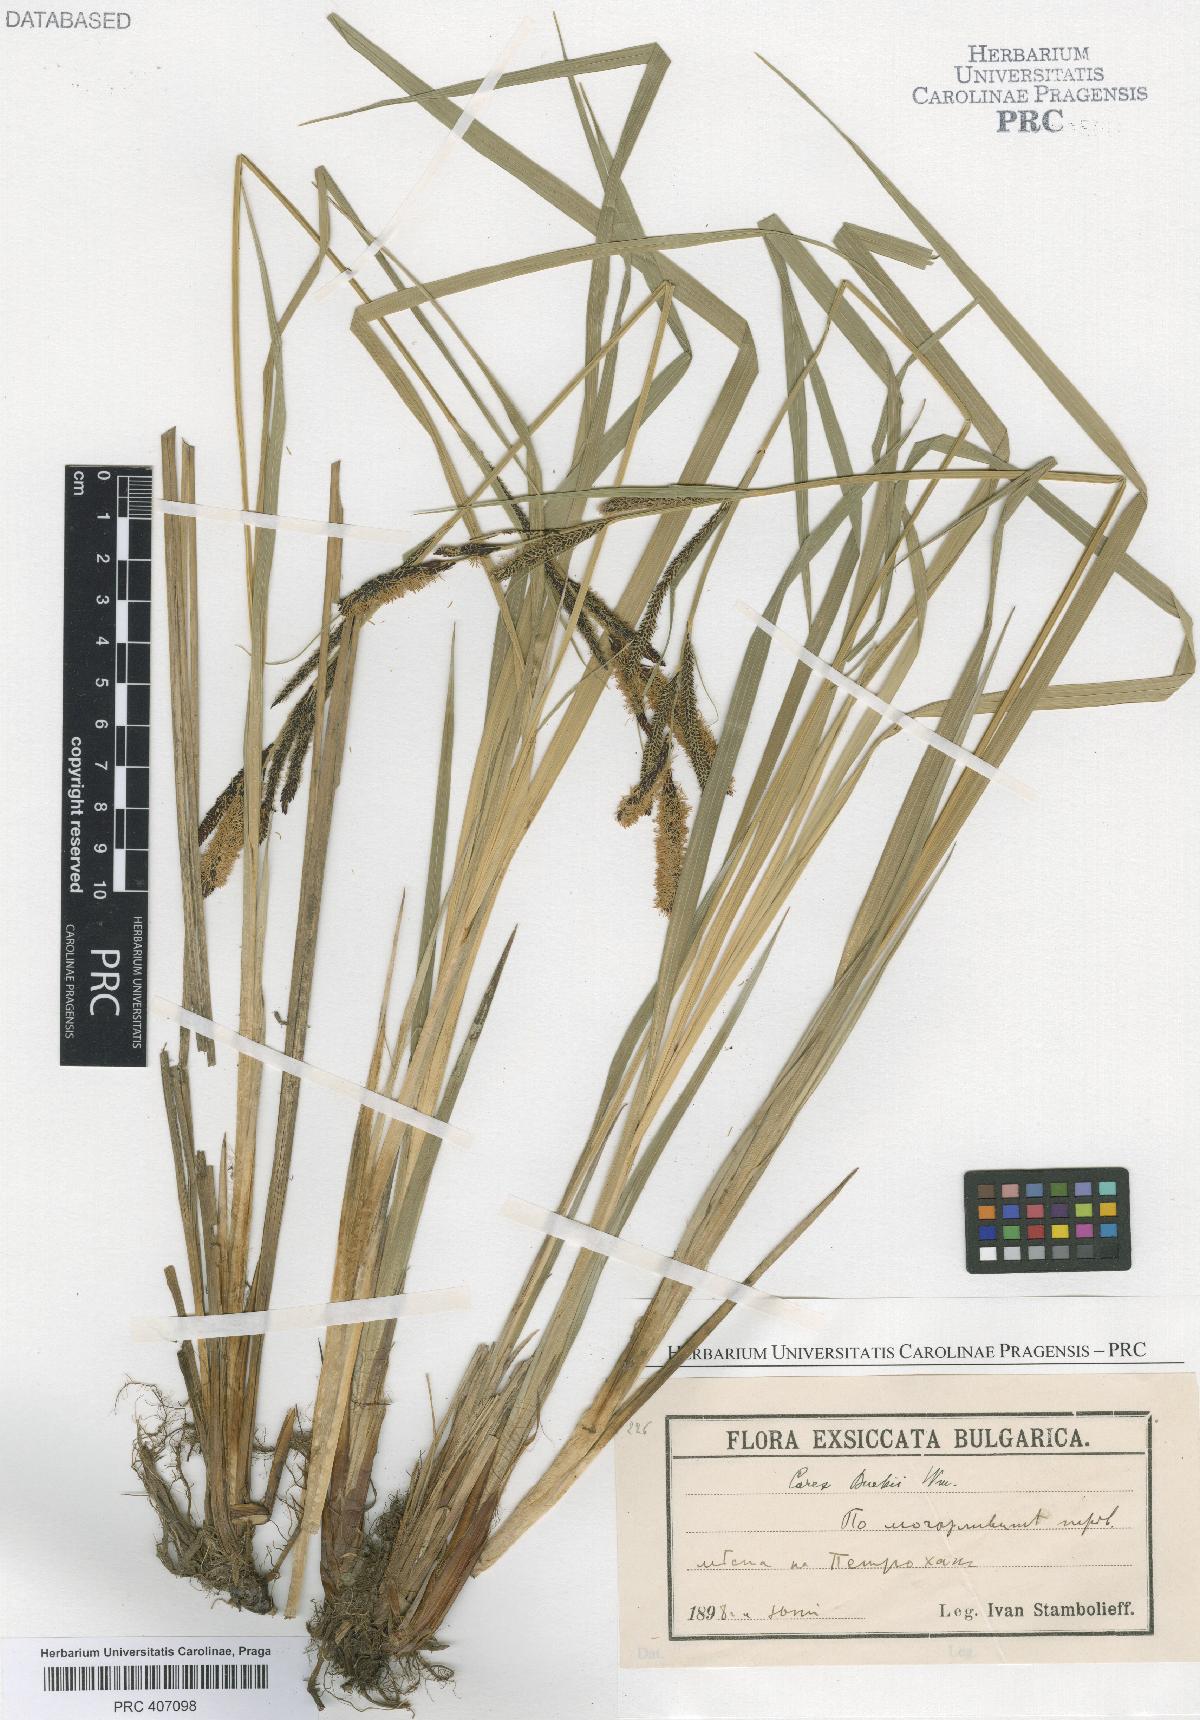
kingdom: Plantae
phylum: Tracheophyta
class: Liliopsida
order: Poales
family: Cyperaceae
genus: Carex
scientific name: Carex buekii
